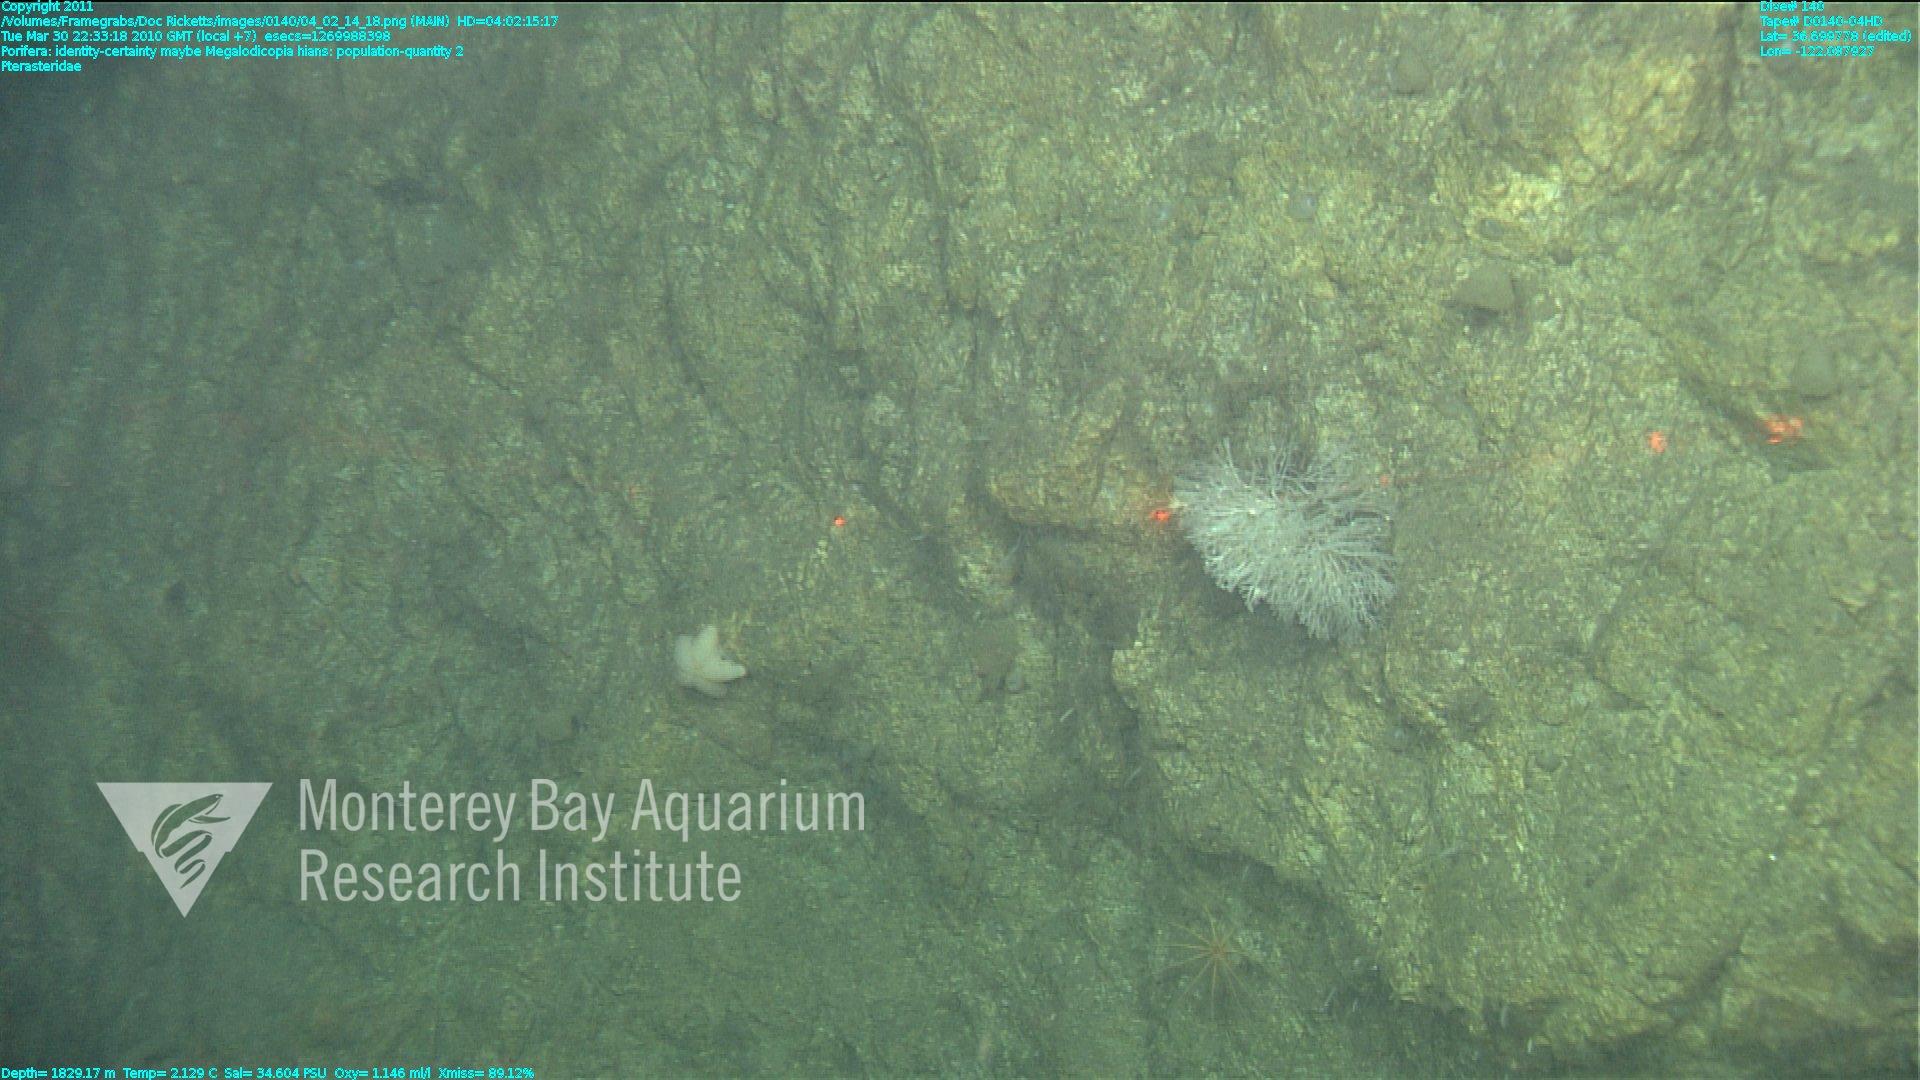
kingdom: Animalia
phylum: Porifera
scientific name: Porifera
